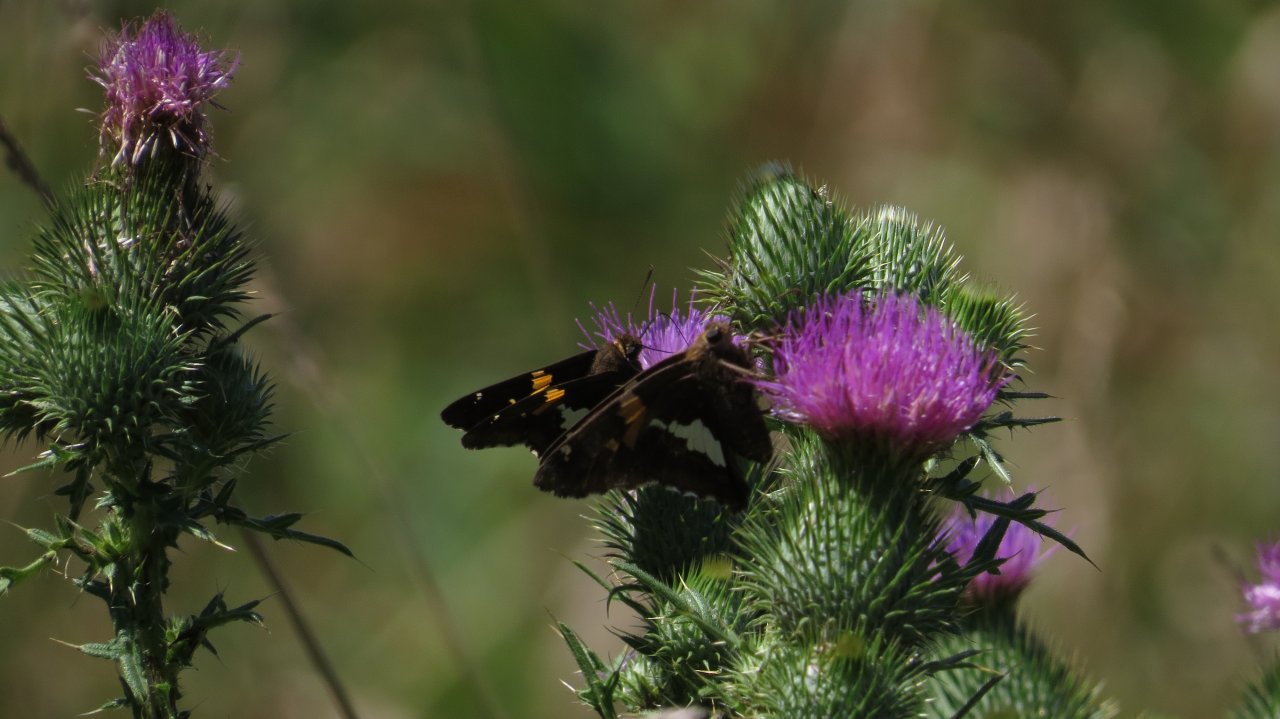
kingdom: Animalia
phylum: Arthropoda
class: Insecta
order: Lepidoptera
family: Hesperiidae
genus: Epargyreus
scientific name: Epargyreus clarus
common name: Silver-spotted Skipper
